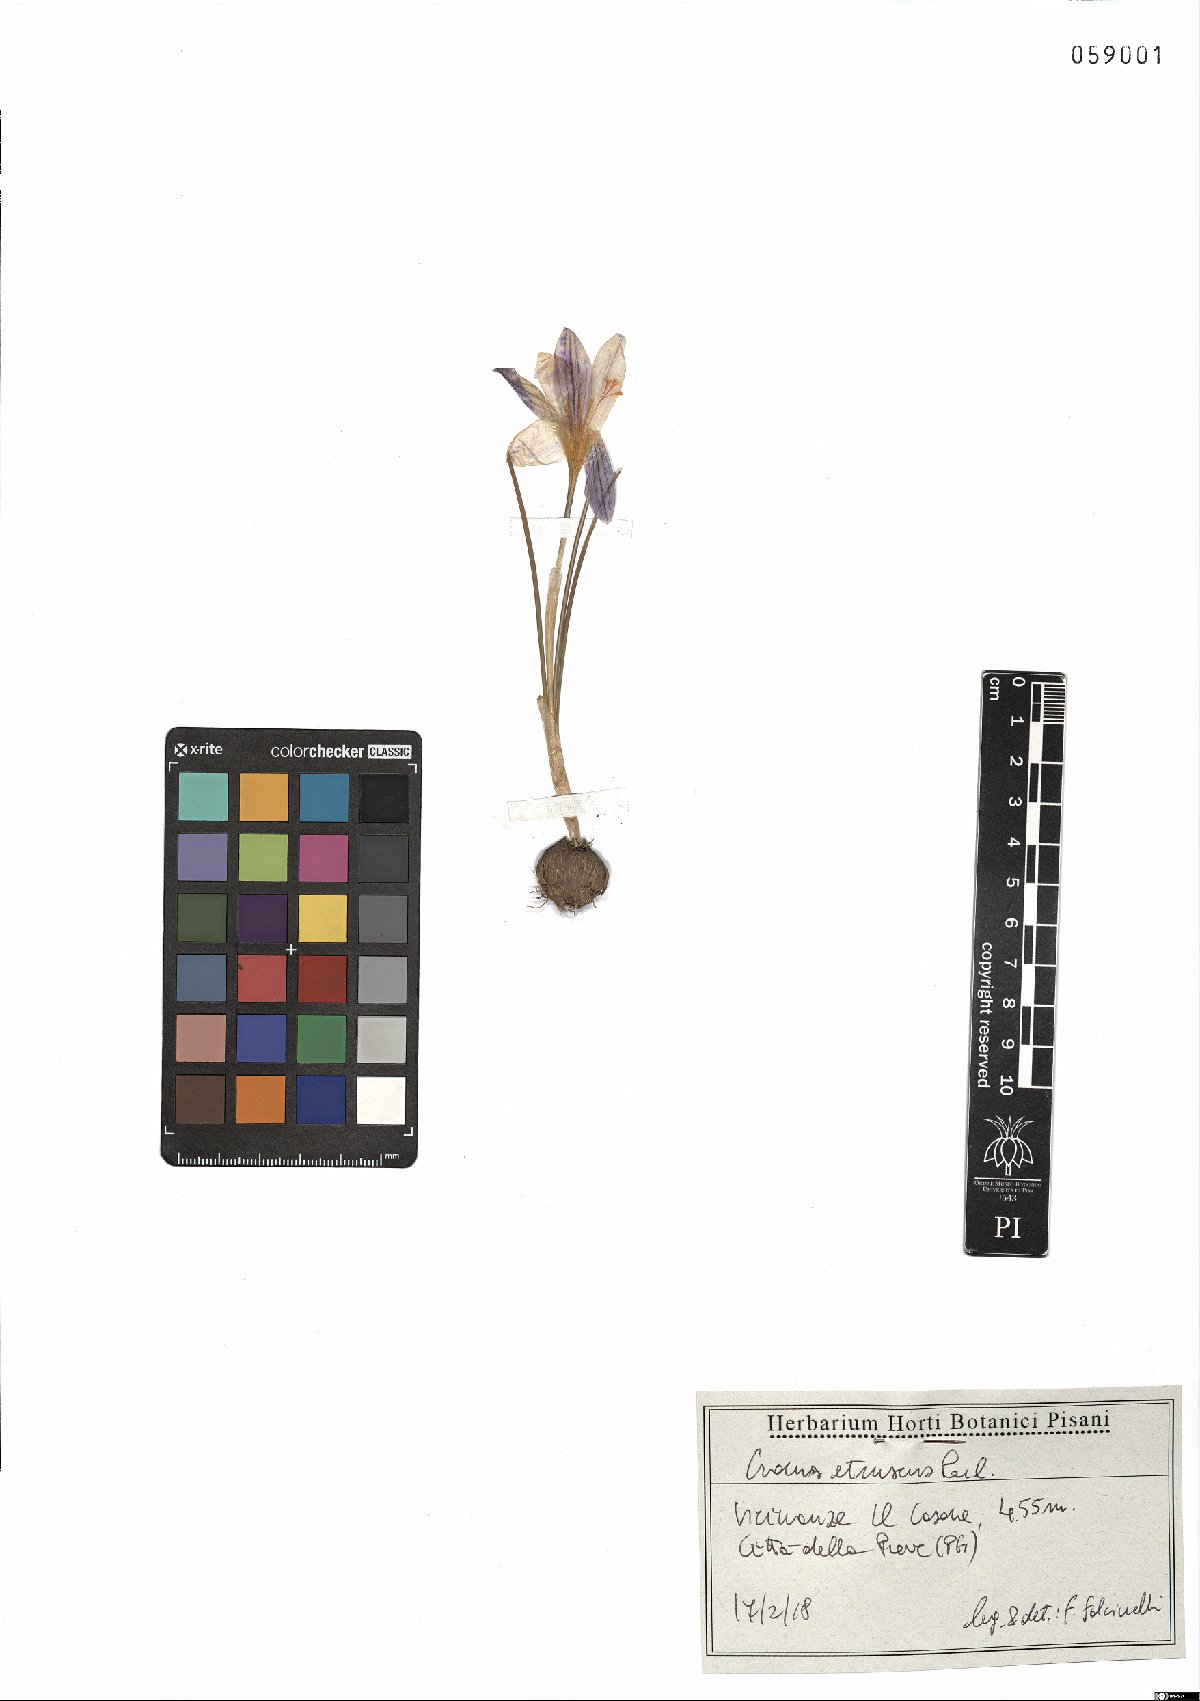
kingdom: Plantae
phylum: Tracheophyta
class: Liliopsida
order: Asparagales
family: Iridaceae
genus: Crocus
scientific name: Crocus etruscus
